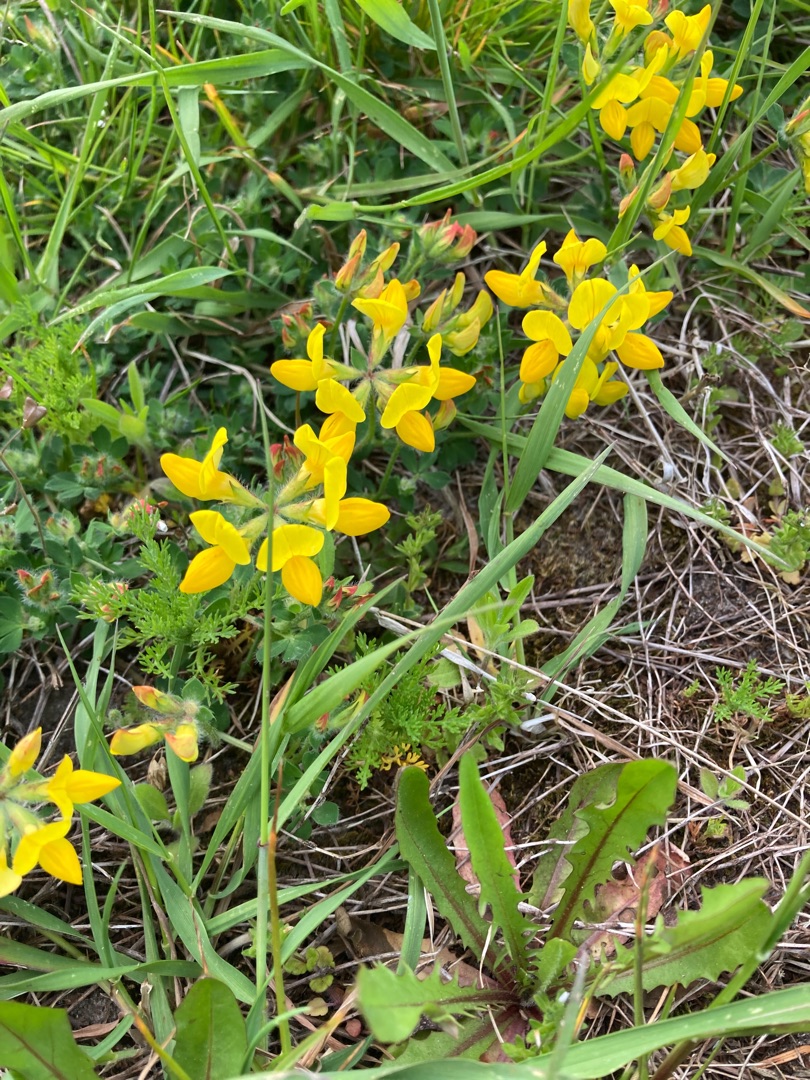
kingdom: Plantae
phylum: Tracheophyta
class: Magnoliopsida
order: Fabales
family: Fabaceae
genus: Lotus
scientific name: Lotus corniculatus
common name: Almindelig kællingetand
